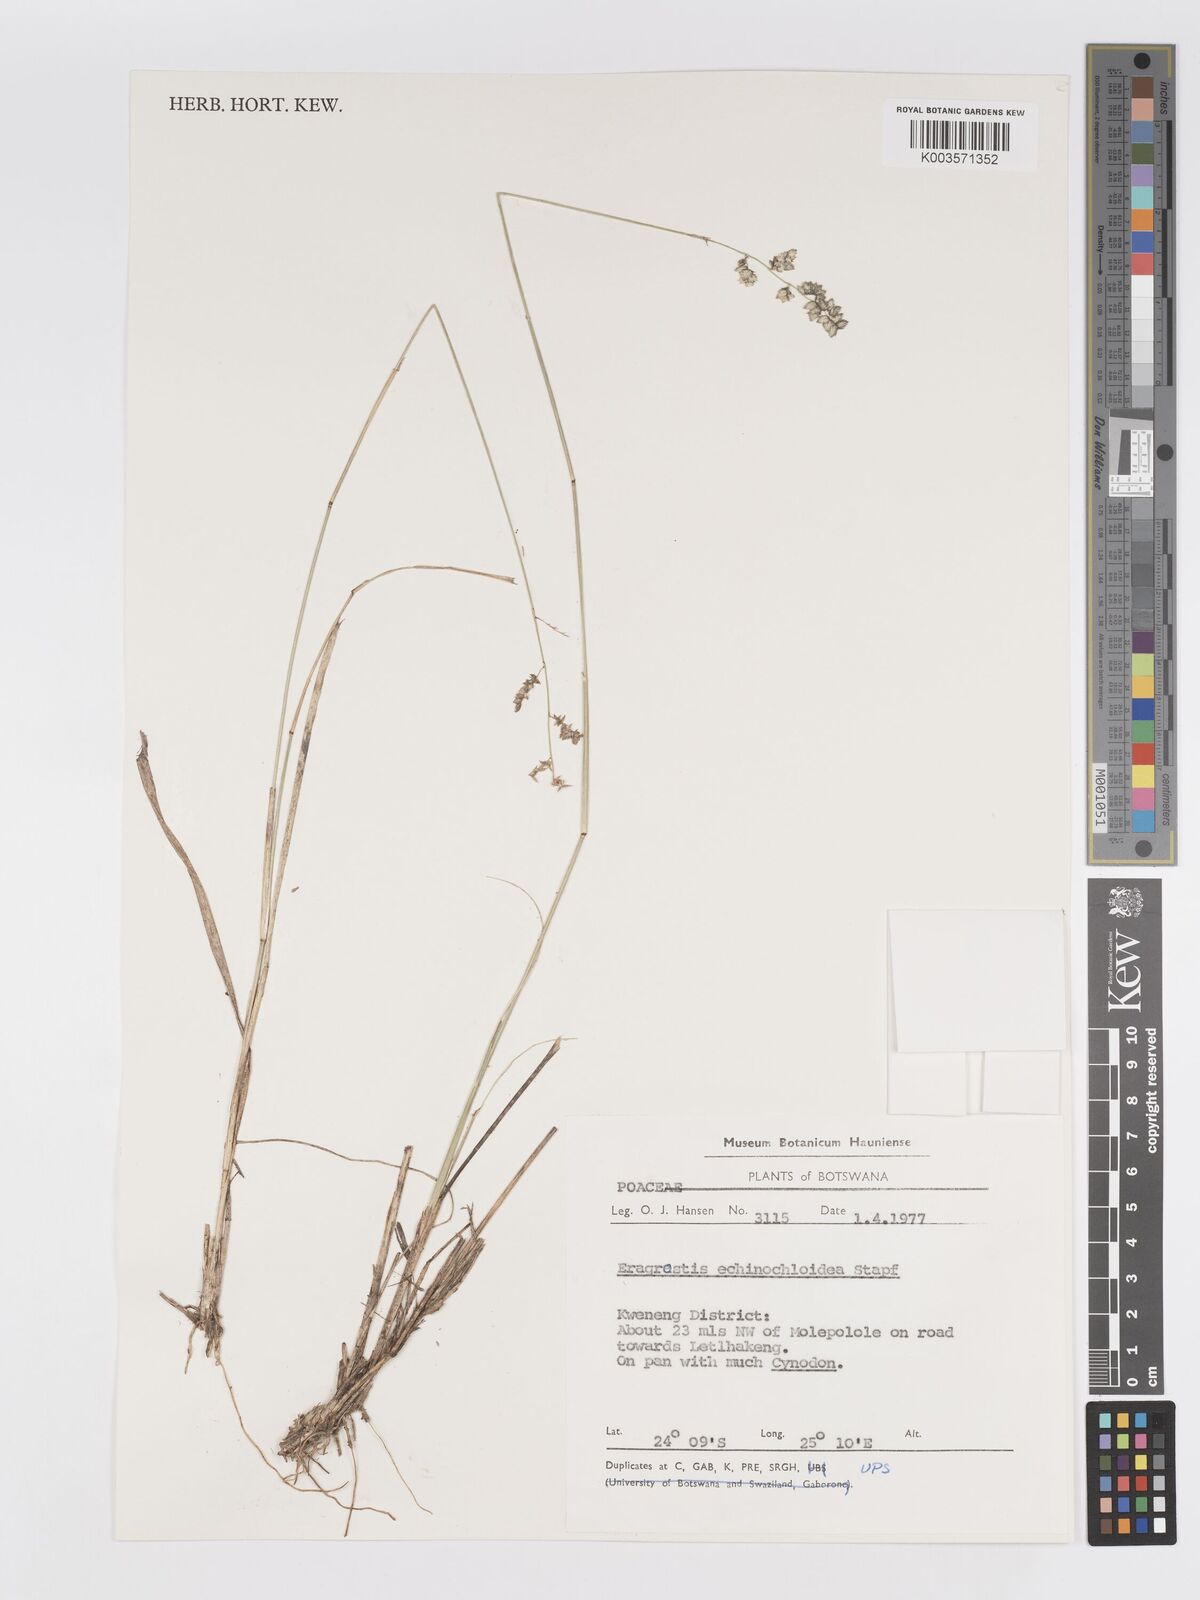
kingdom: Plantae
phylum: Tracheophyta
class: Liliopsida
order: Poales
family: Poaceae
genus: Eragrostis
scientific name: Eragrostis echinochloidea
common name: African lovegrass
